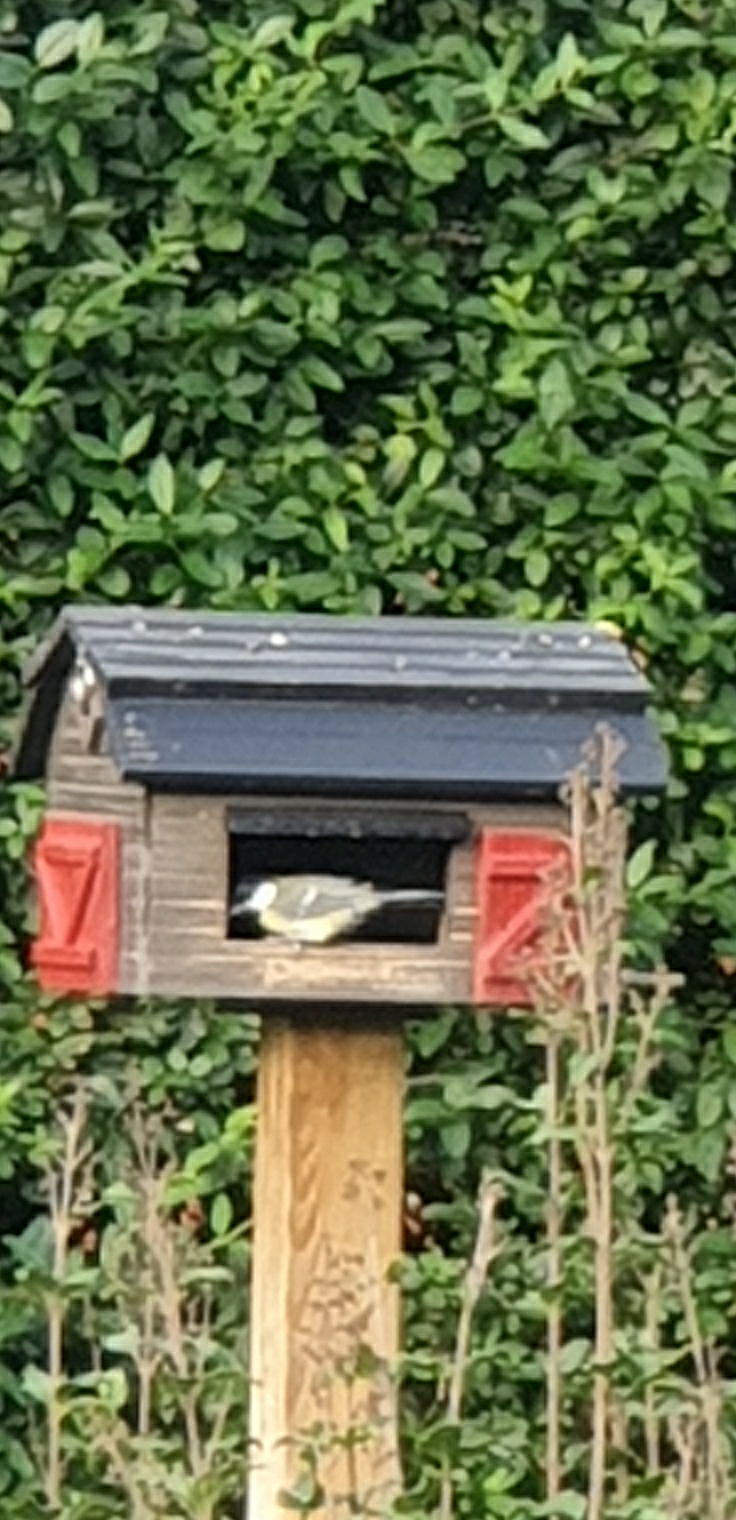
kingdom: Animalia
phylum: Chordata
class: Aves
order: Passeriformes
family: Paridae
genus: Parus
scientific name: Parus major
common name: Musvit
